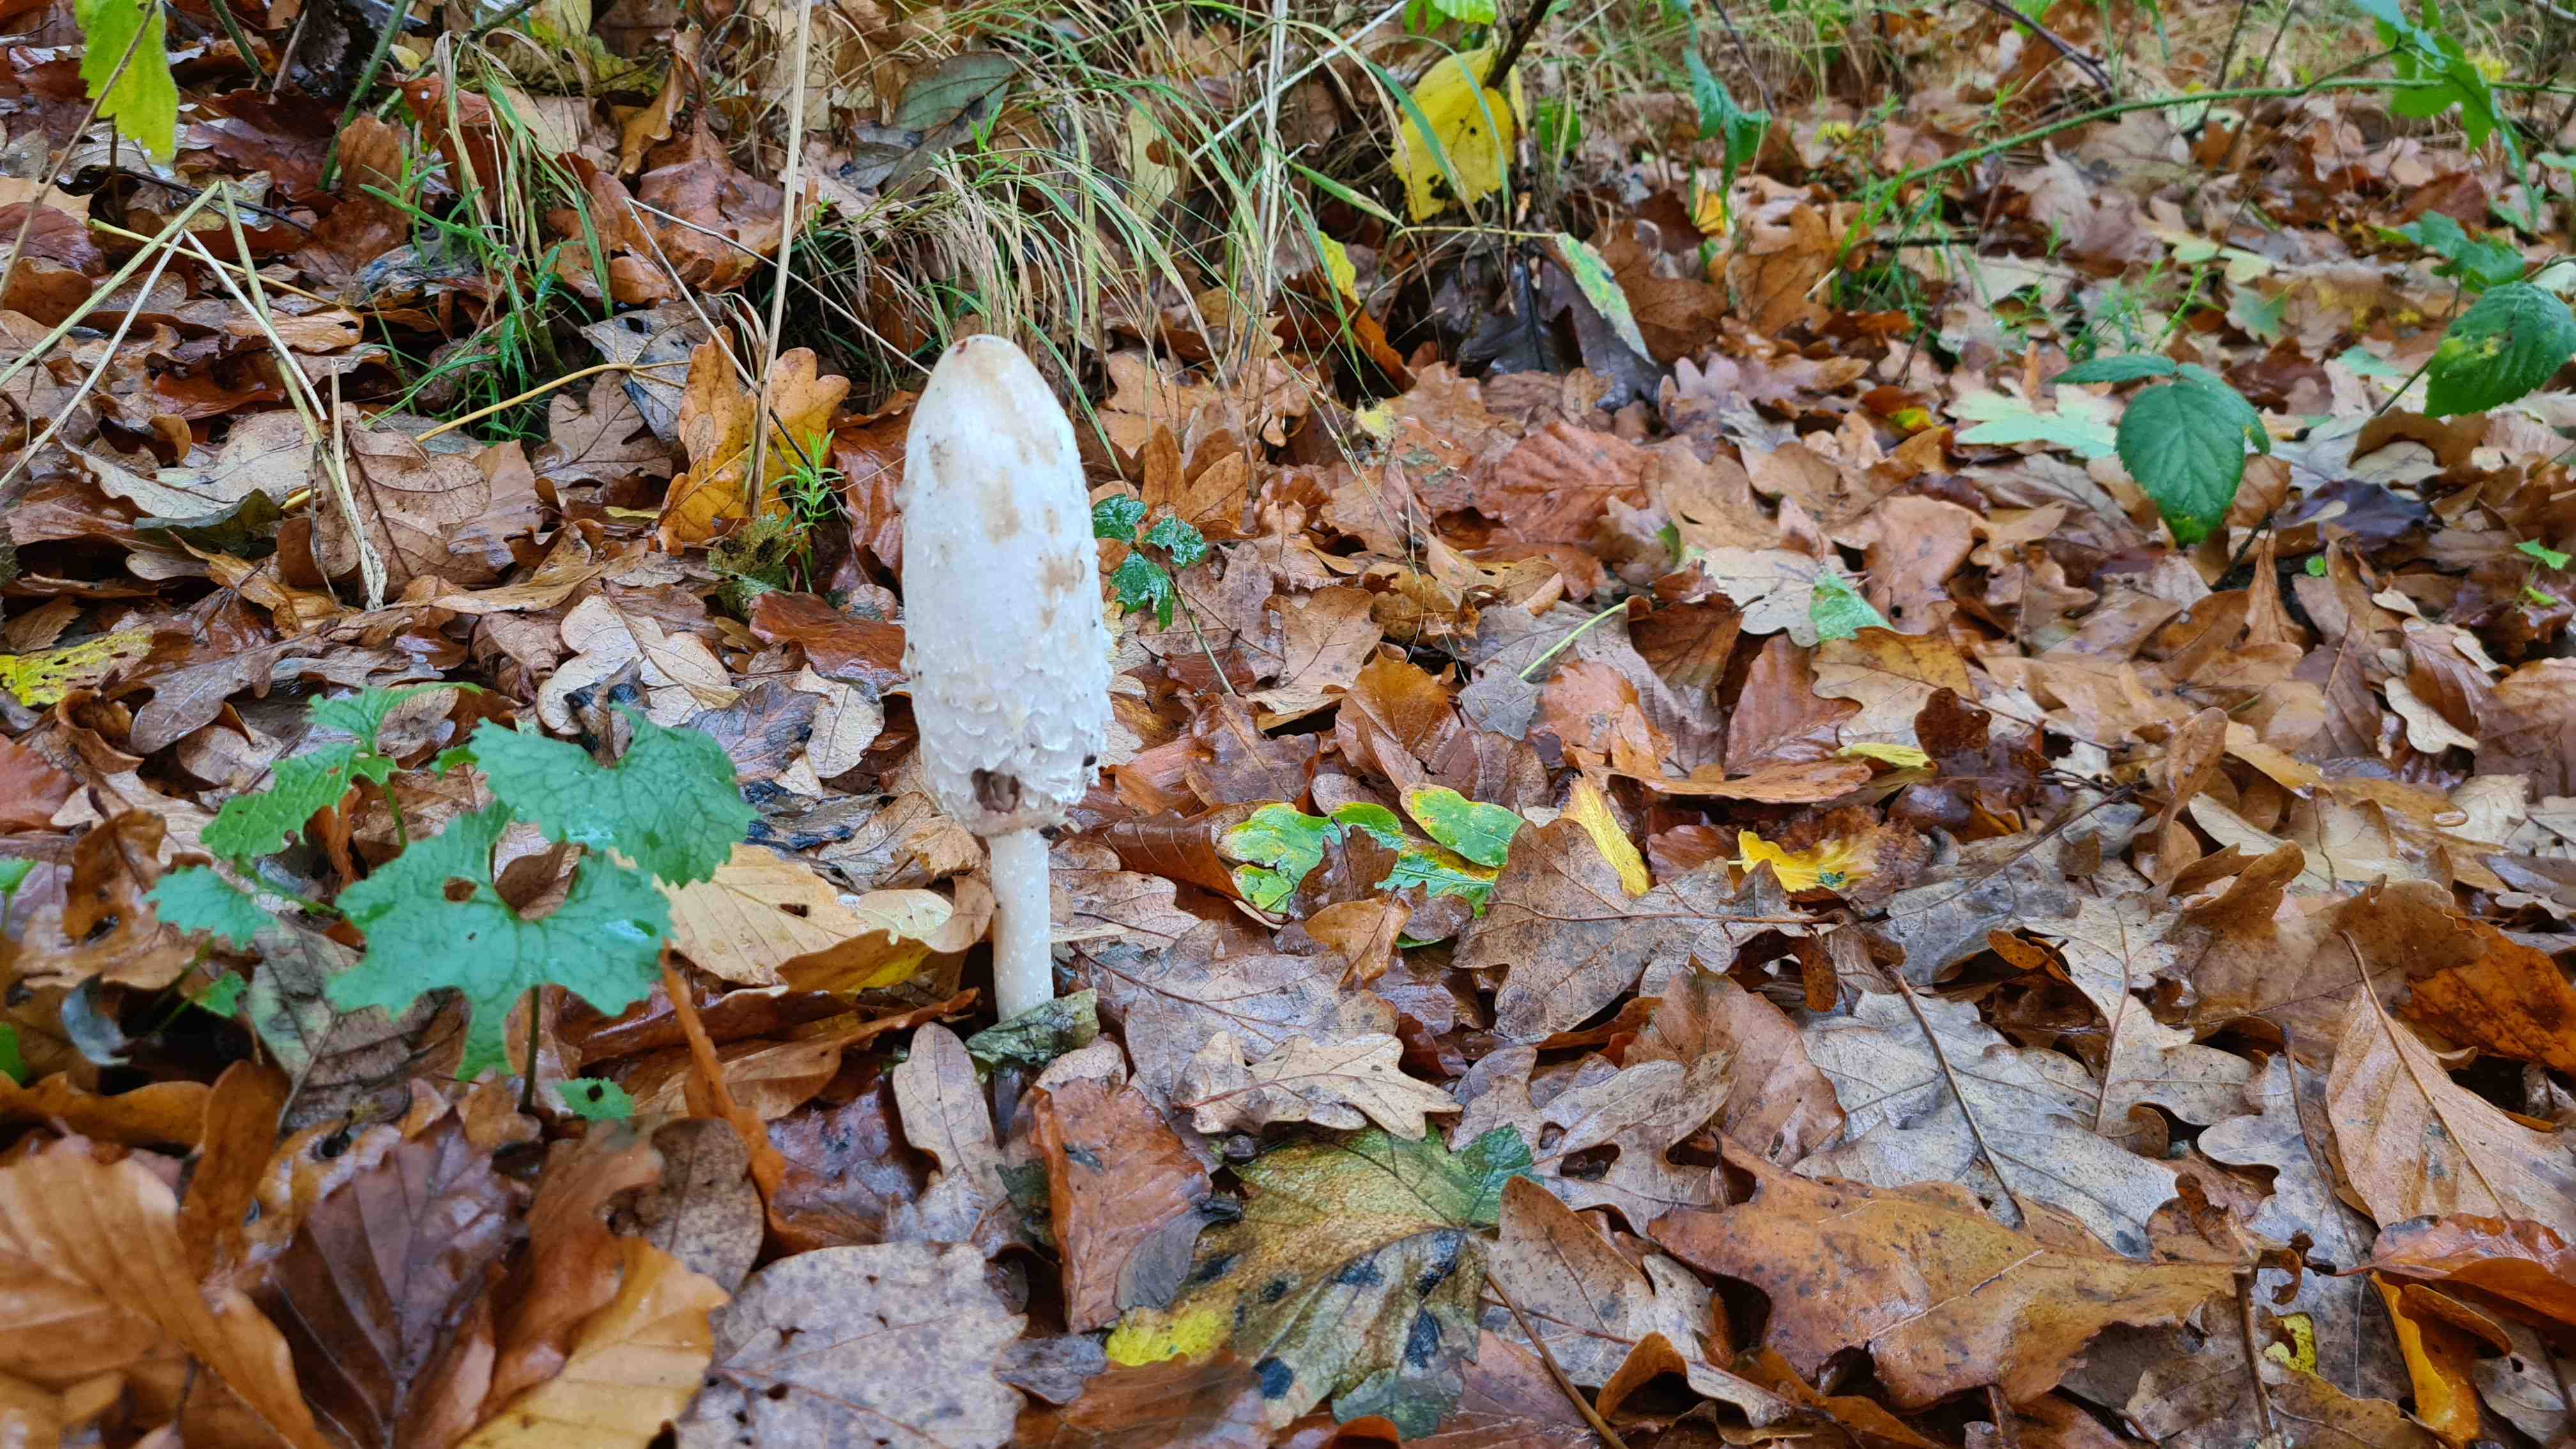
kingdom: Fungi
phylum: Basidiomycota
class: Agaricomycetes
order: Agaricales
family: Agaricaceae
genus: Coprinus
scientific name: Coprinus comatus
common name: stor parykhat
